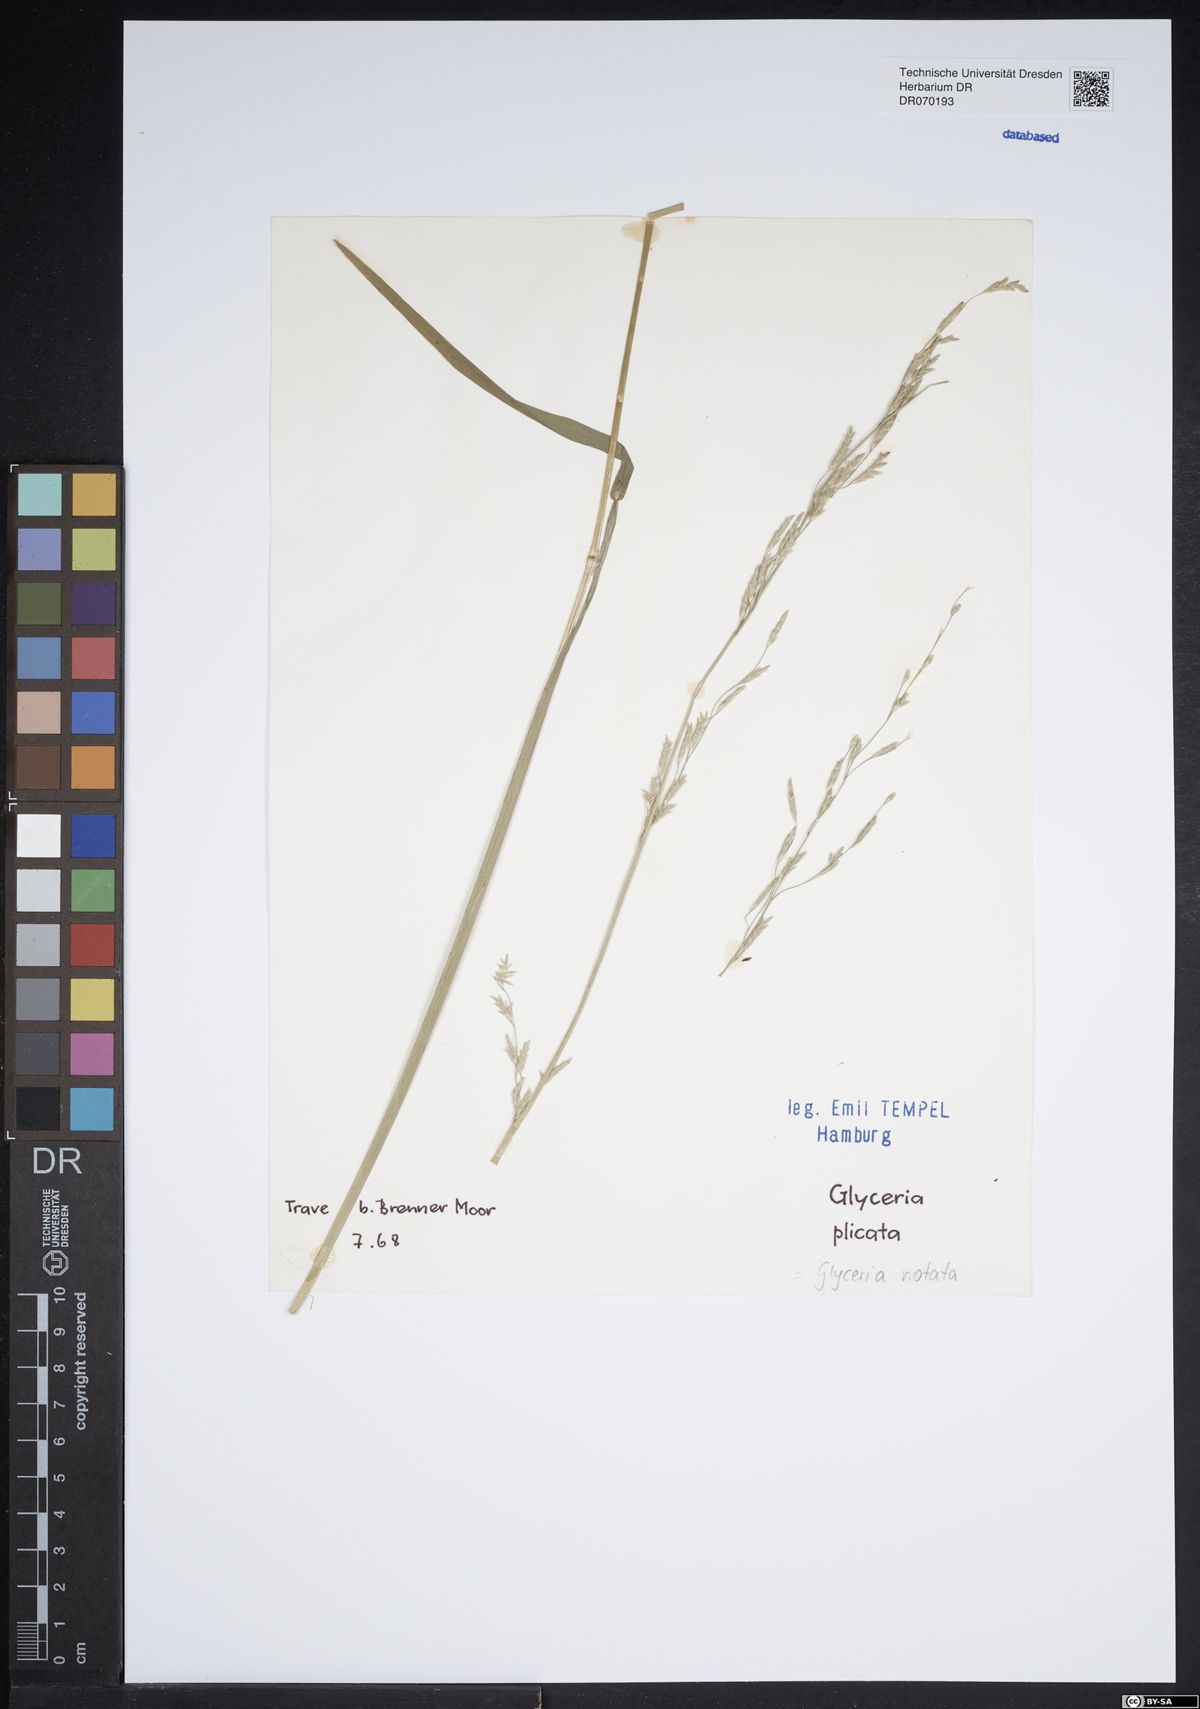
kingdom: Plantae
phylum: Tracheophyta
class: Liliopsida
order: Poales
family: Poaceae
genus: Glyceria
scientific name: Glyceria notata
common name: Plicate sweet-grass
